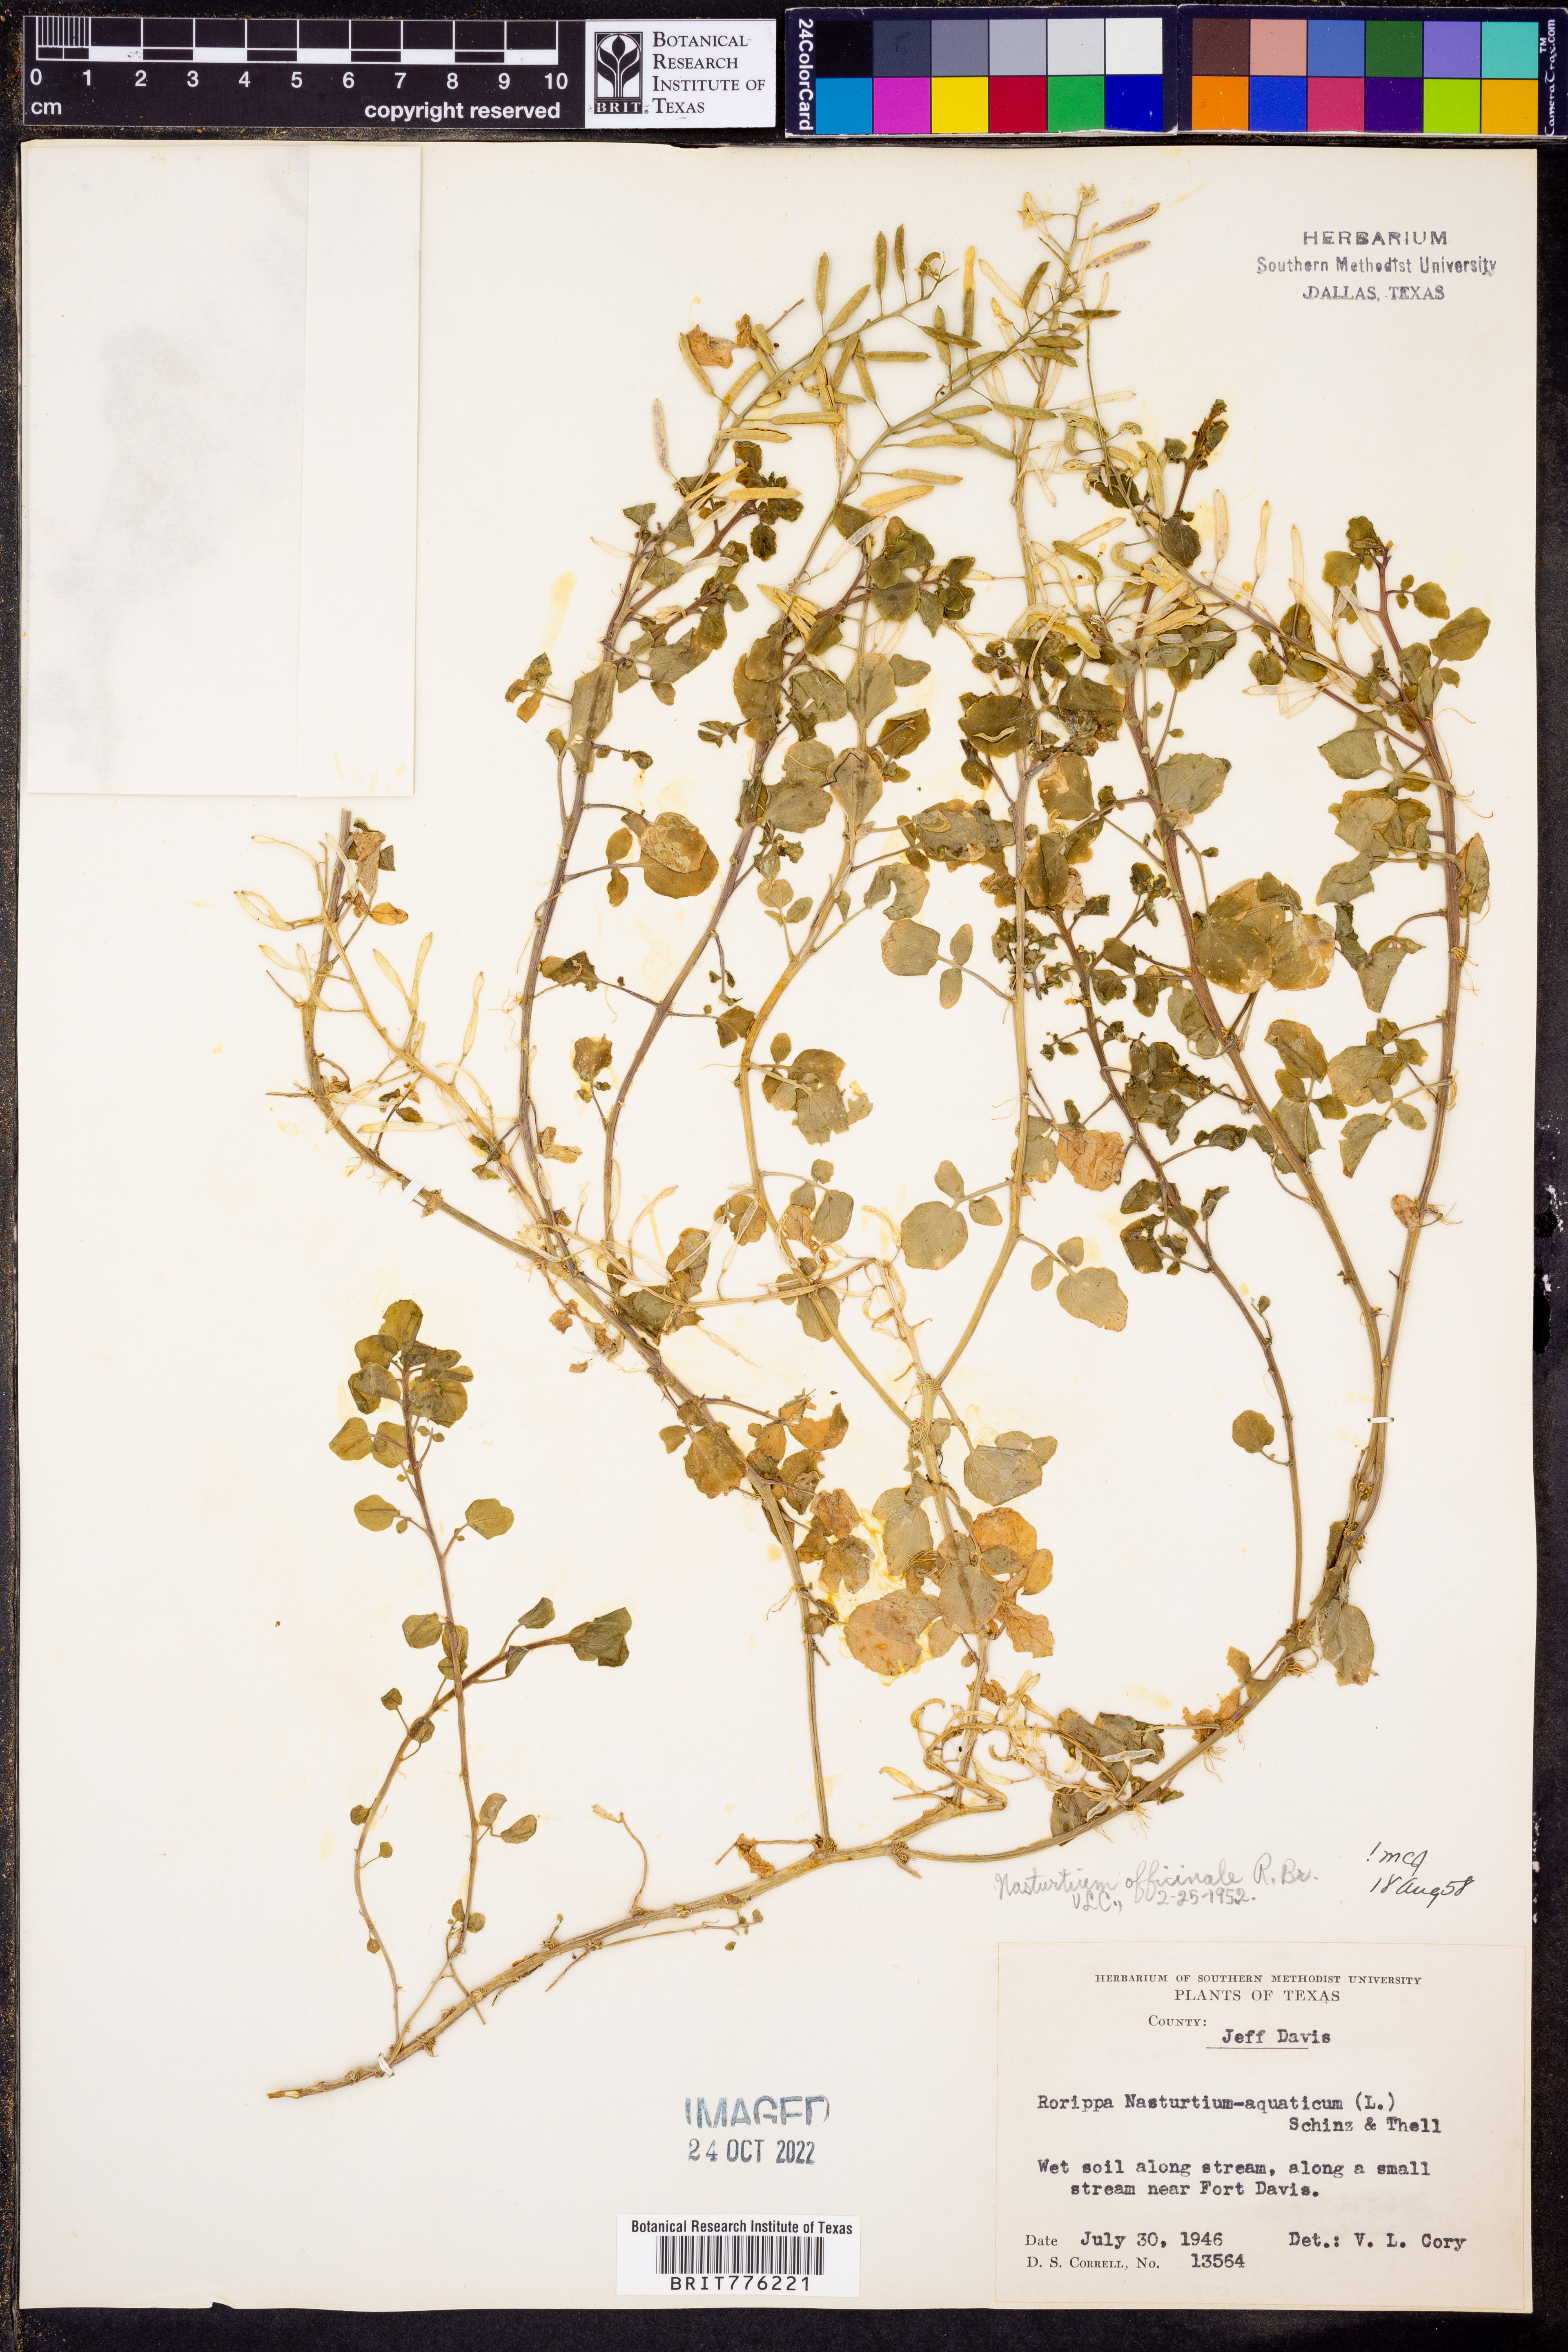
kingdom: Plantae
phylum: Tracheophyta
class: Magnoliopsida
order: Brassicales
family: Brassicaceae
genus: Nasturtium
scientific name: Nasturtium officinale
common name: Watercress
